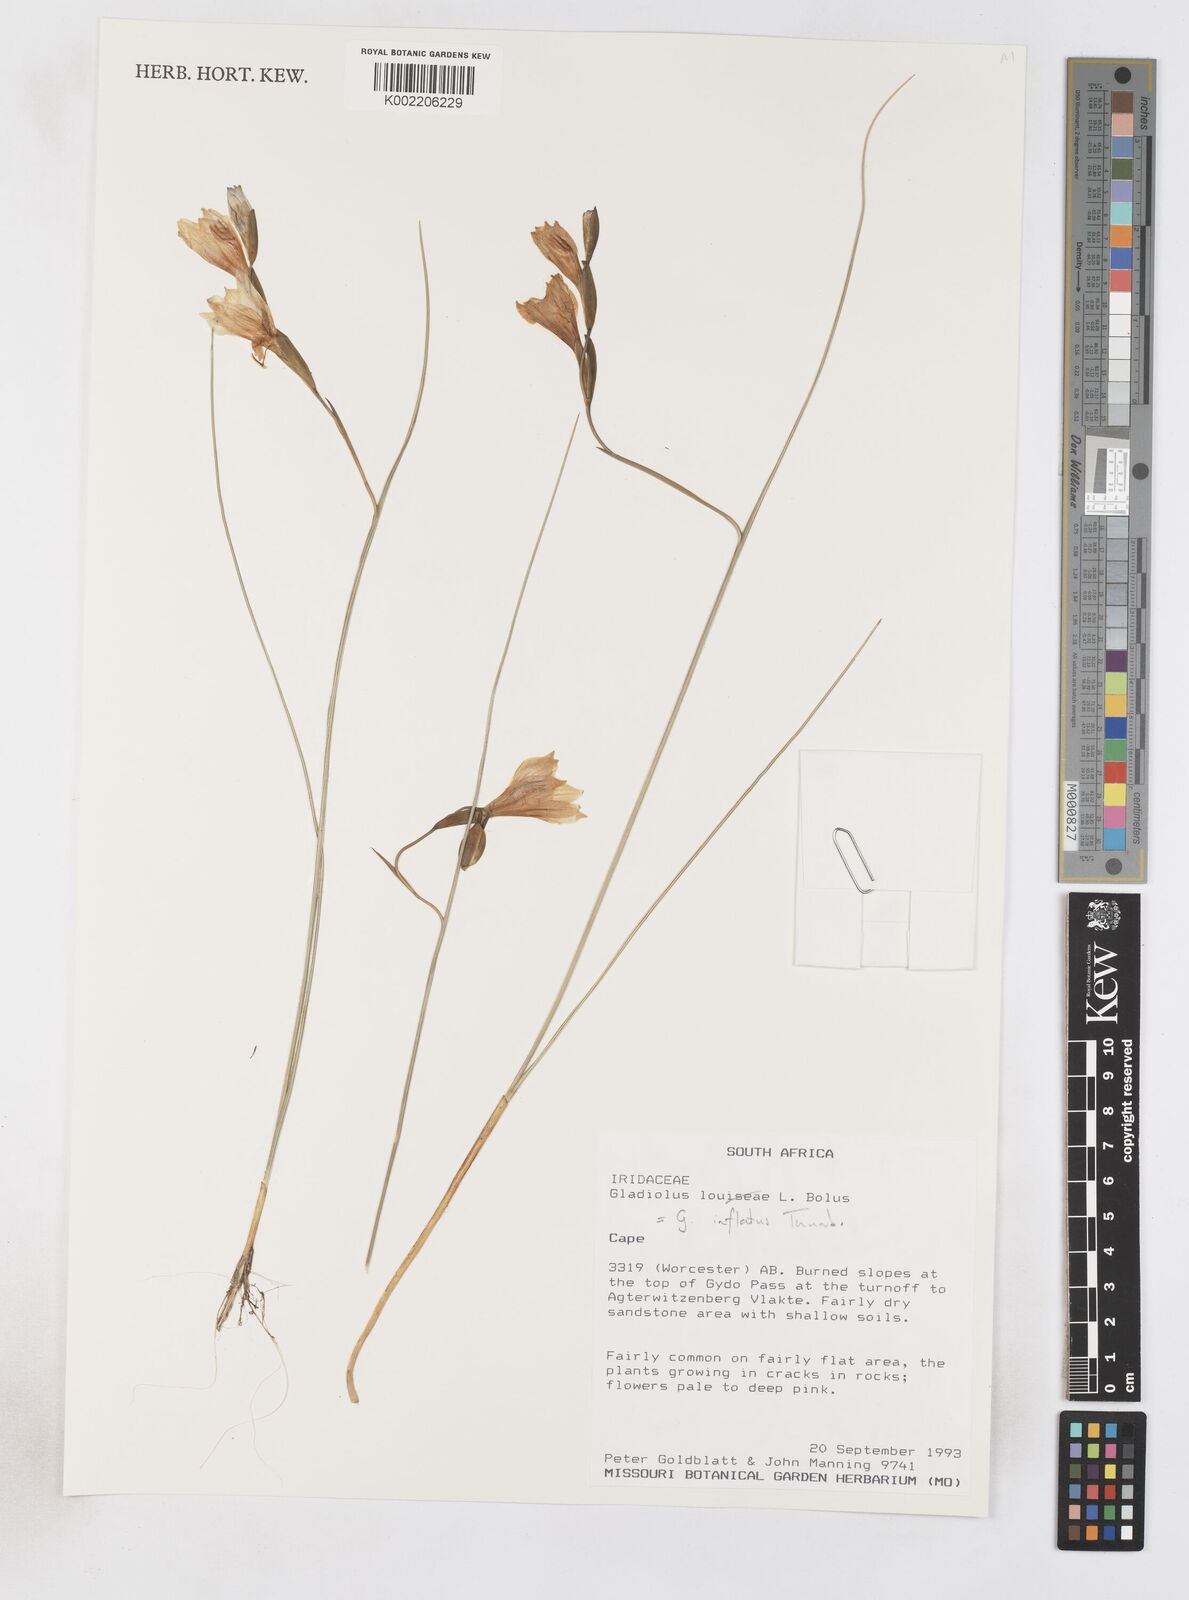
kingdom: Plantae
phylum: Tracheophyta
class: Liliopsida
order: Asparagales
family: Iridaceae
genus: Gladiolus
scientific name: Gladiolus inflatus
